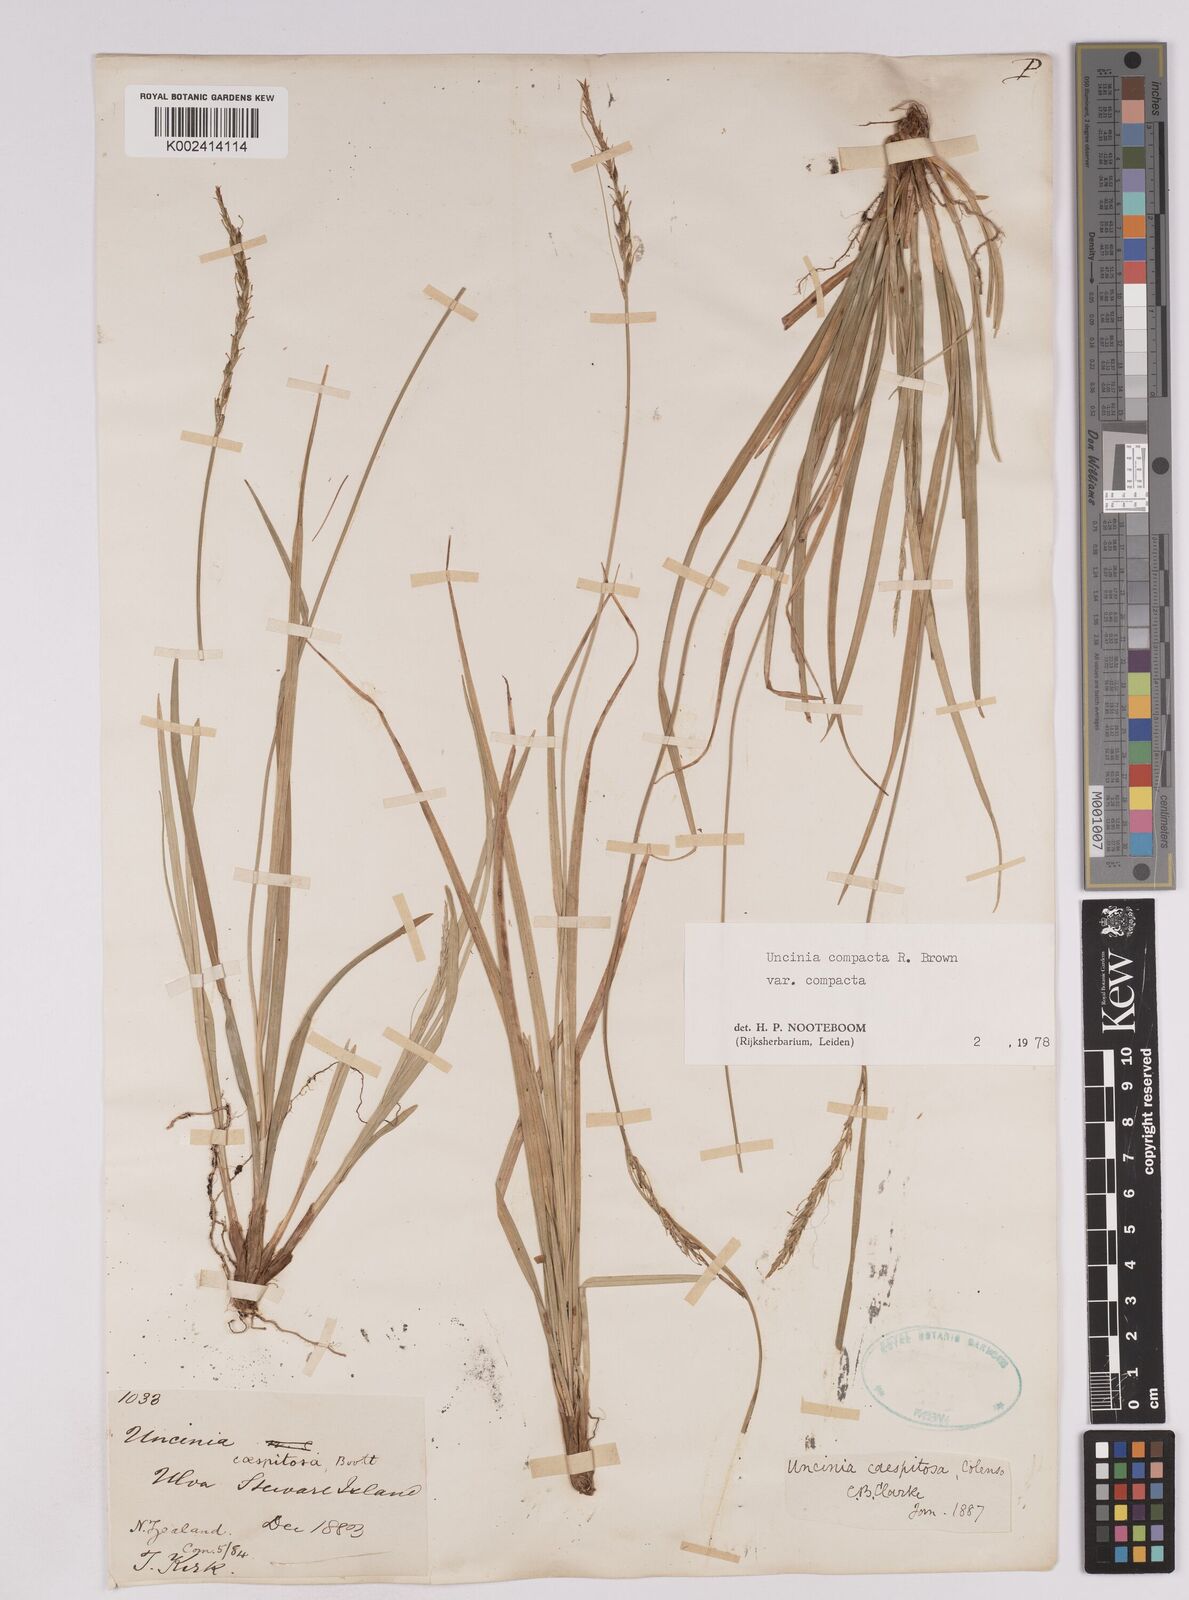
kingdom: Plantae
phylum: Tracheophyta
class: Liliopsida
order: Poales
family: Cyperaceae
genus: Carex
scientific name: Carex austrocompacta
